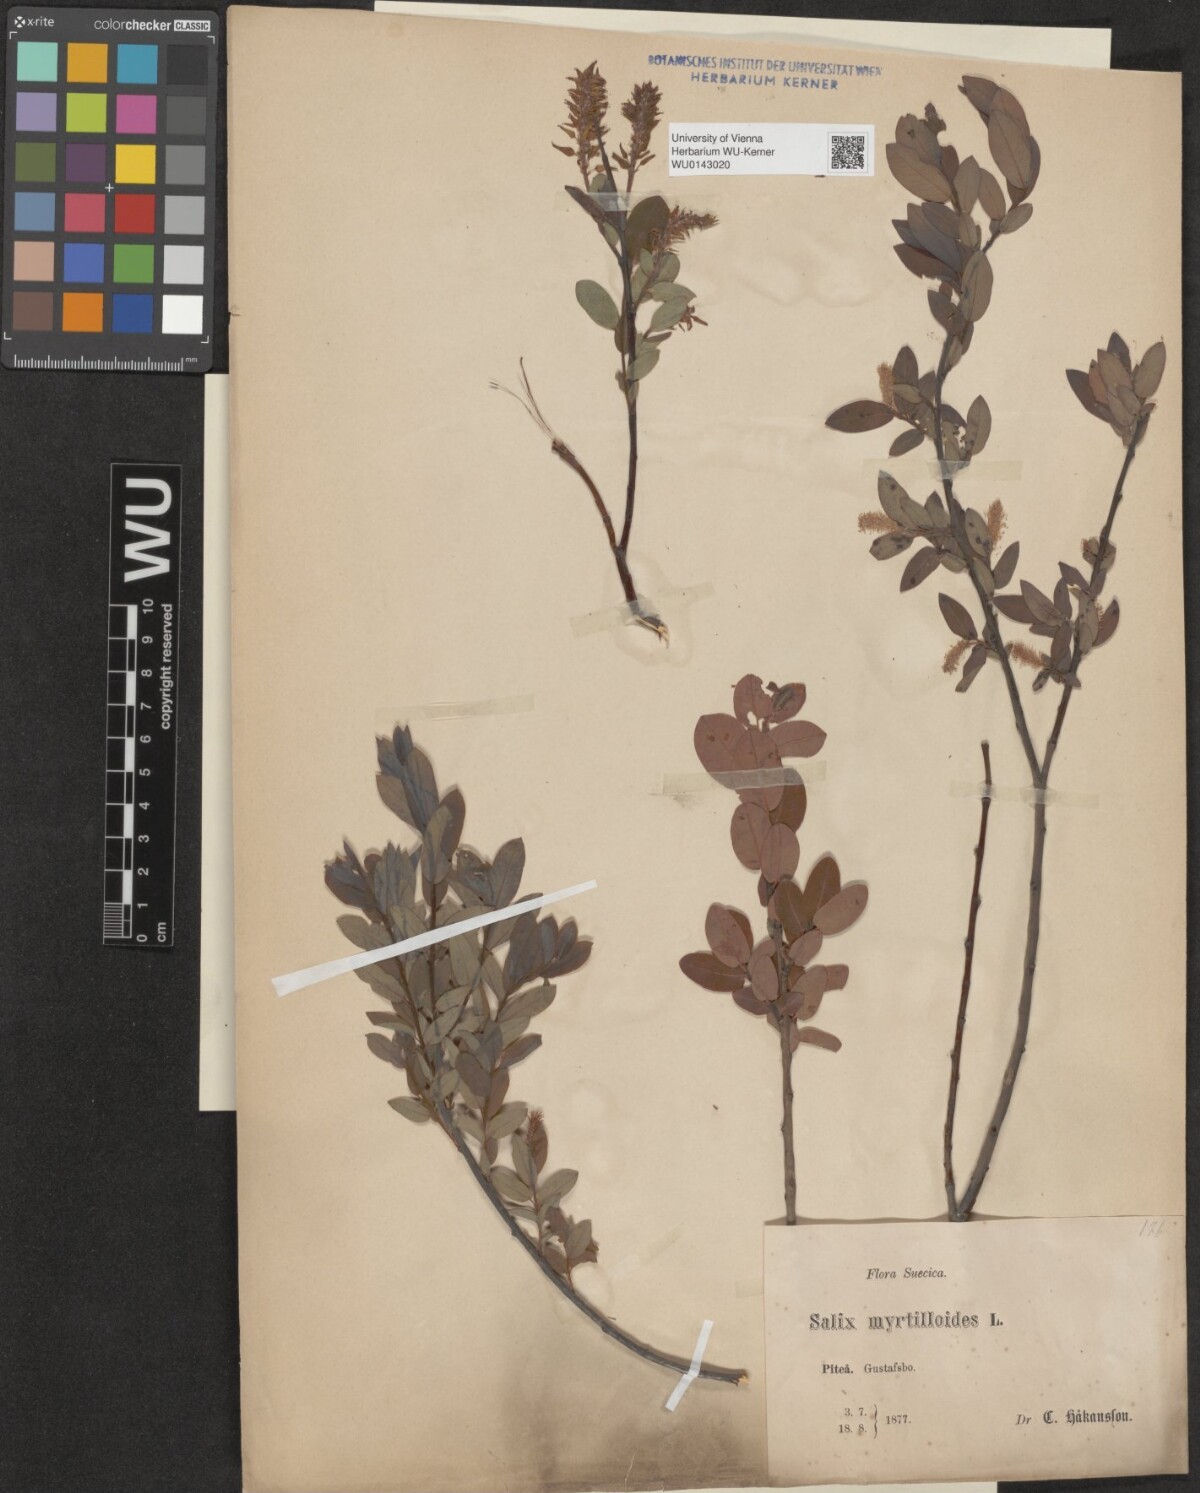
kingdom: Plantae
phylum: Tracheophyta
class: Magnoliopsida
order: Malpighiales
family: Salicaceae
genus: Salix
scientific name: Salix myrtilloides
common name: Myrtle-leaved willow
